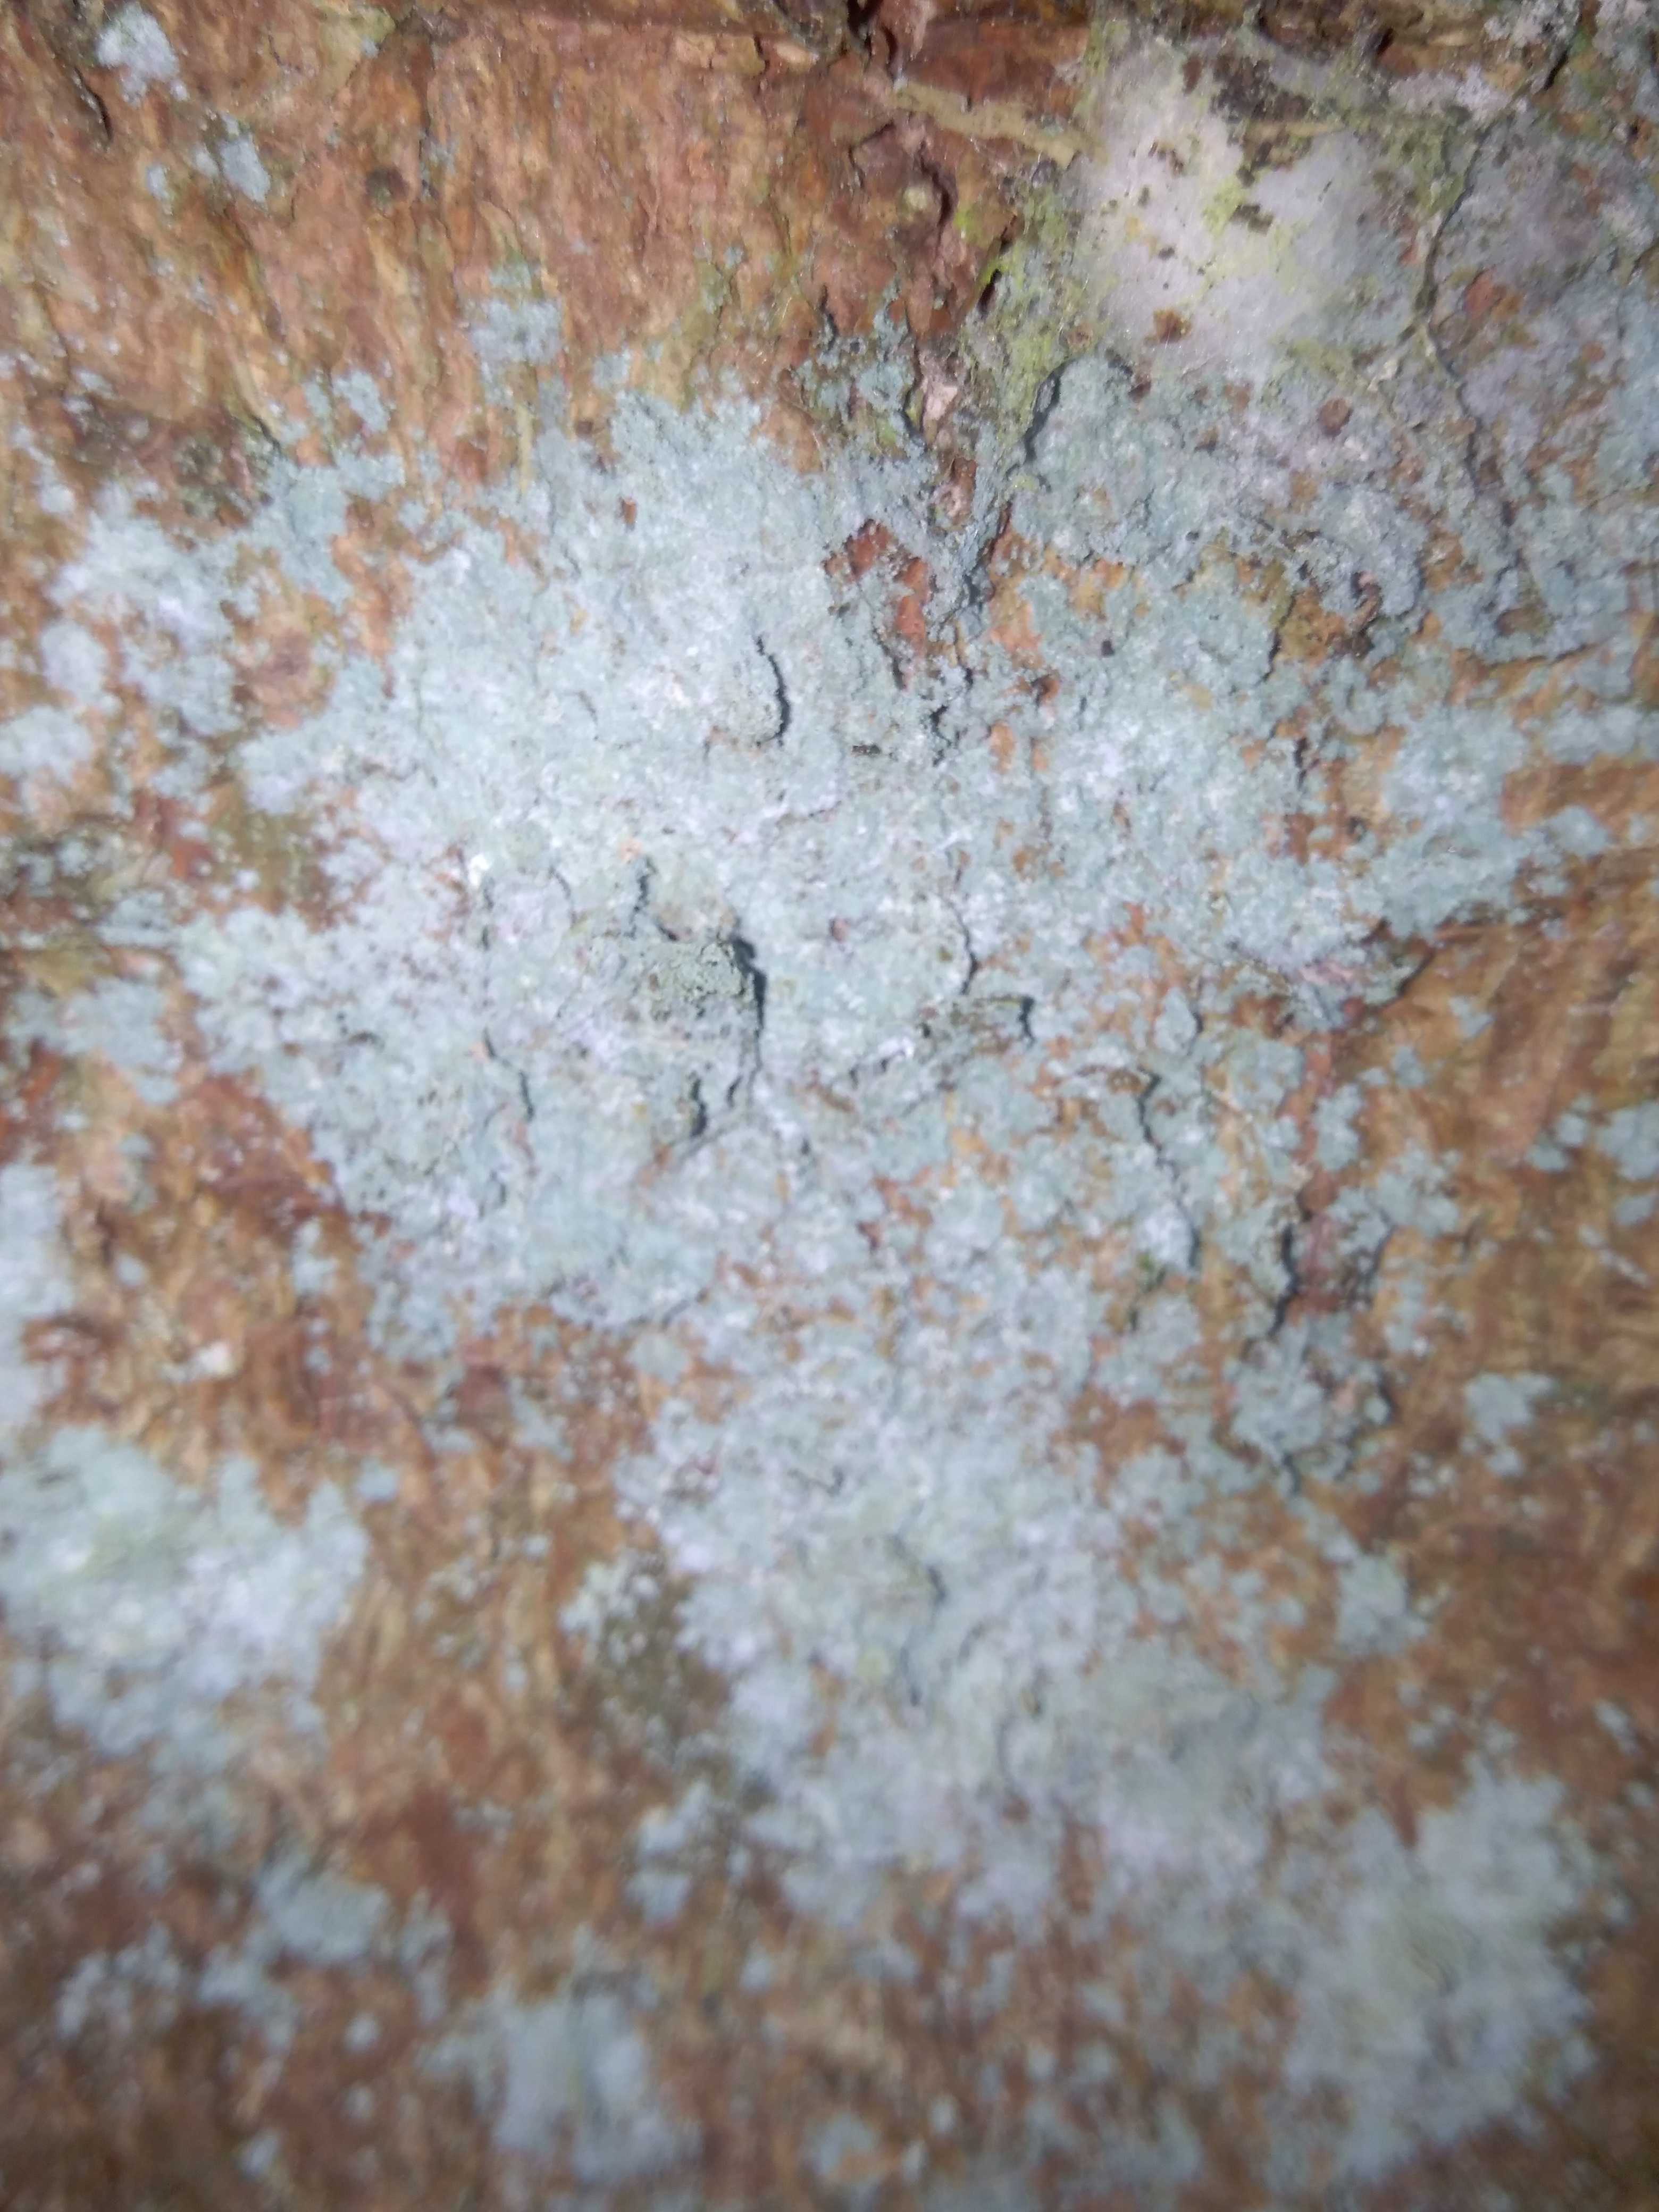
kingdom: Fungi
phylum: Ascomycota
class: Lecanoromycetes
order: Lecanorales
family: Stereocaulaceae
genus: Lepraria
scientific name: Lepraria incana
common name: almindelig støvlav
